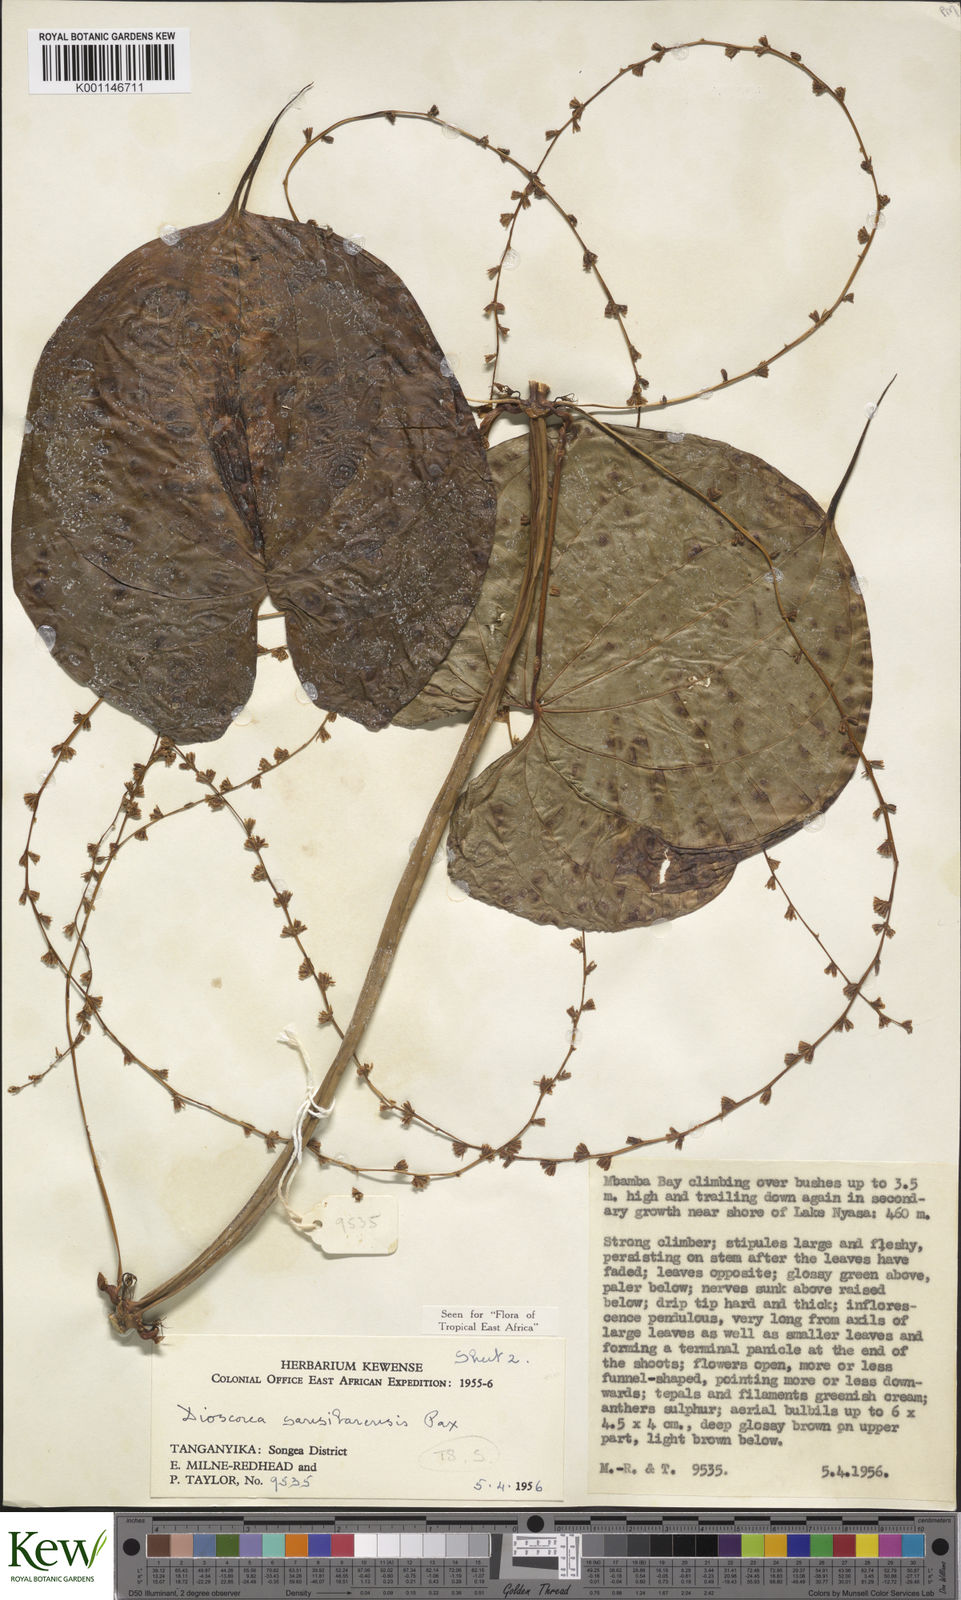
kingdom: Plantae
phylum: Tracheophyta
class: Liliopsida
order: Dioscoreales
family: Dioscoreaceae
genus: Dioscorea
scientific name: Dioscorea sansibarensis
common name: Zanzibar yam
